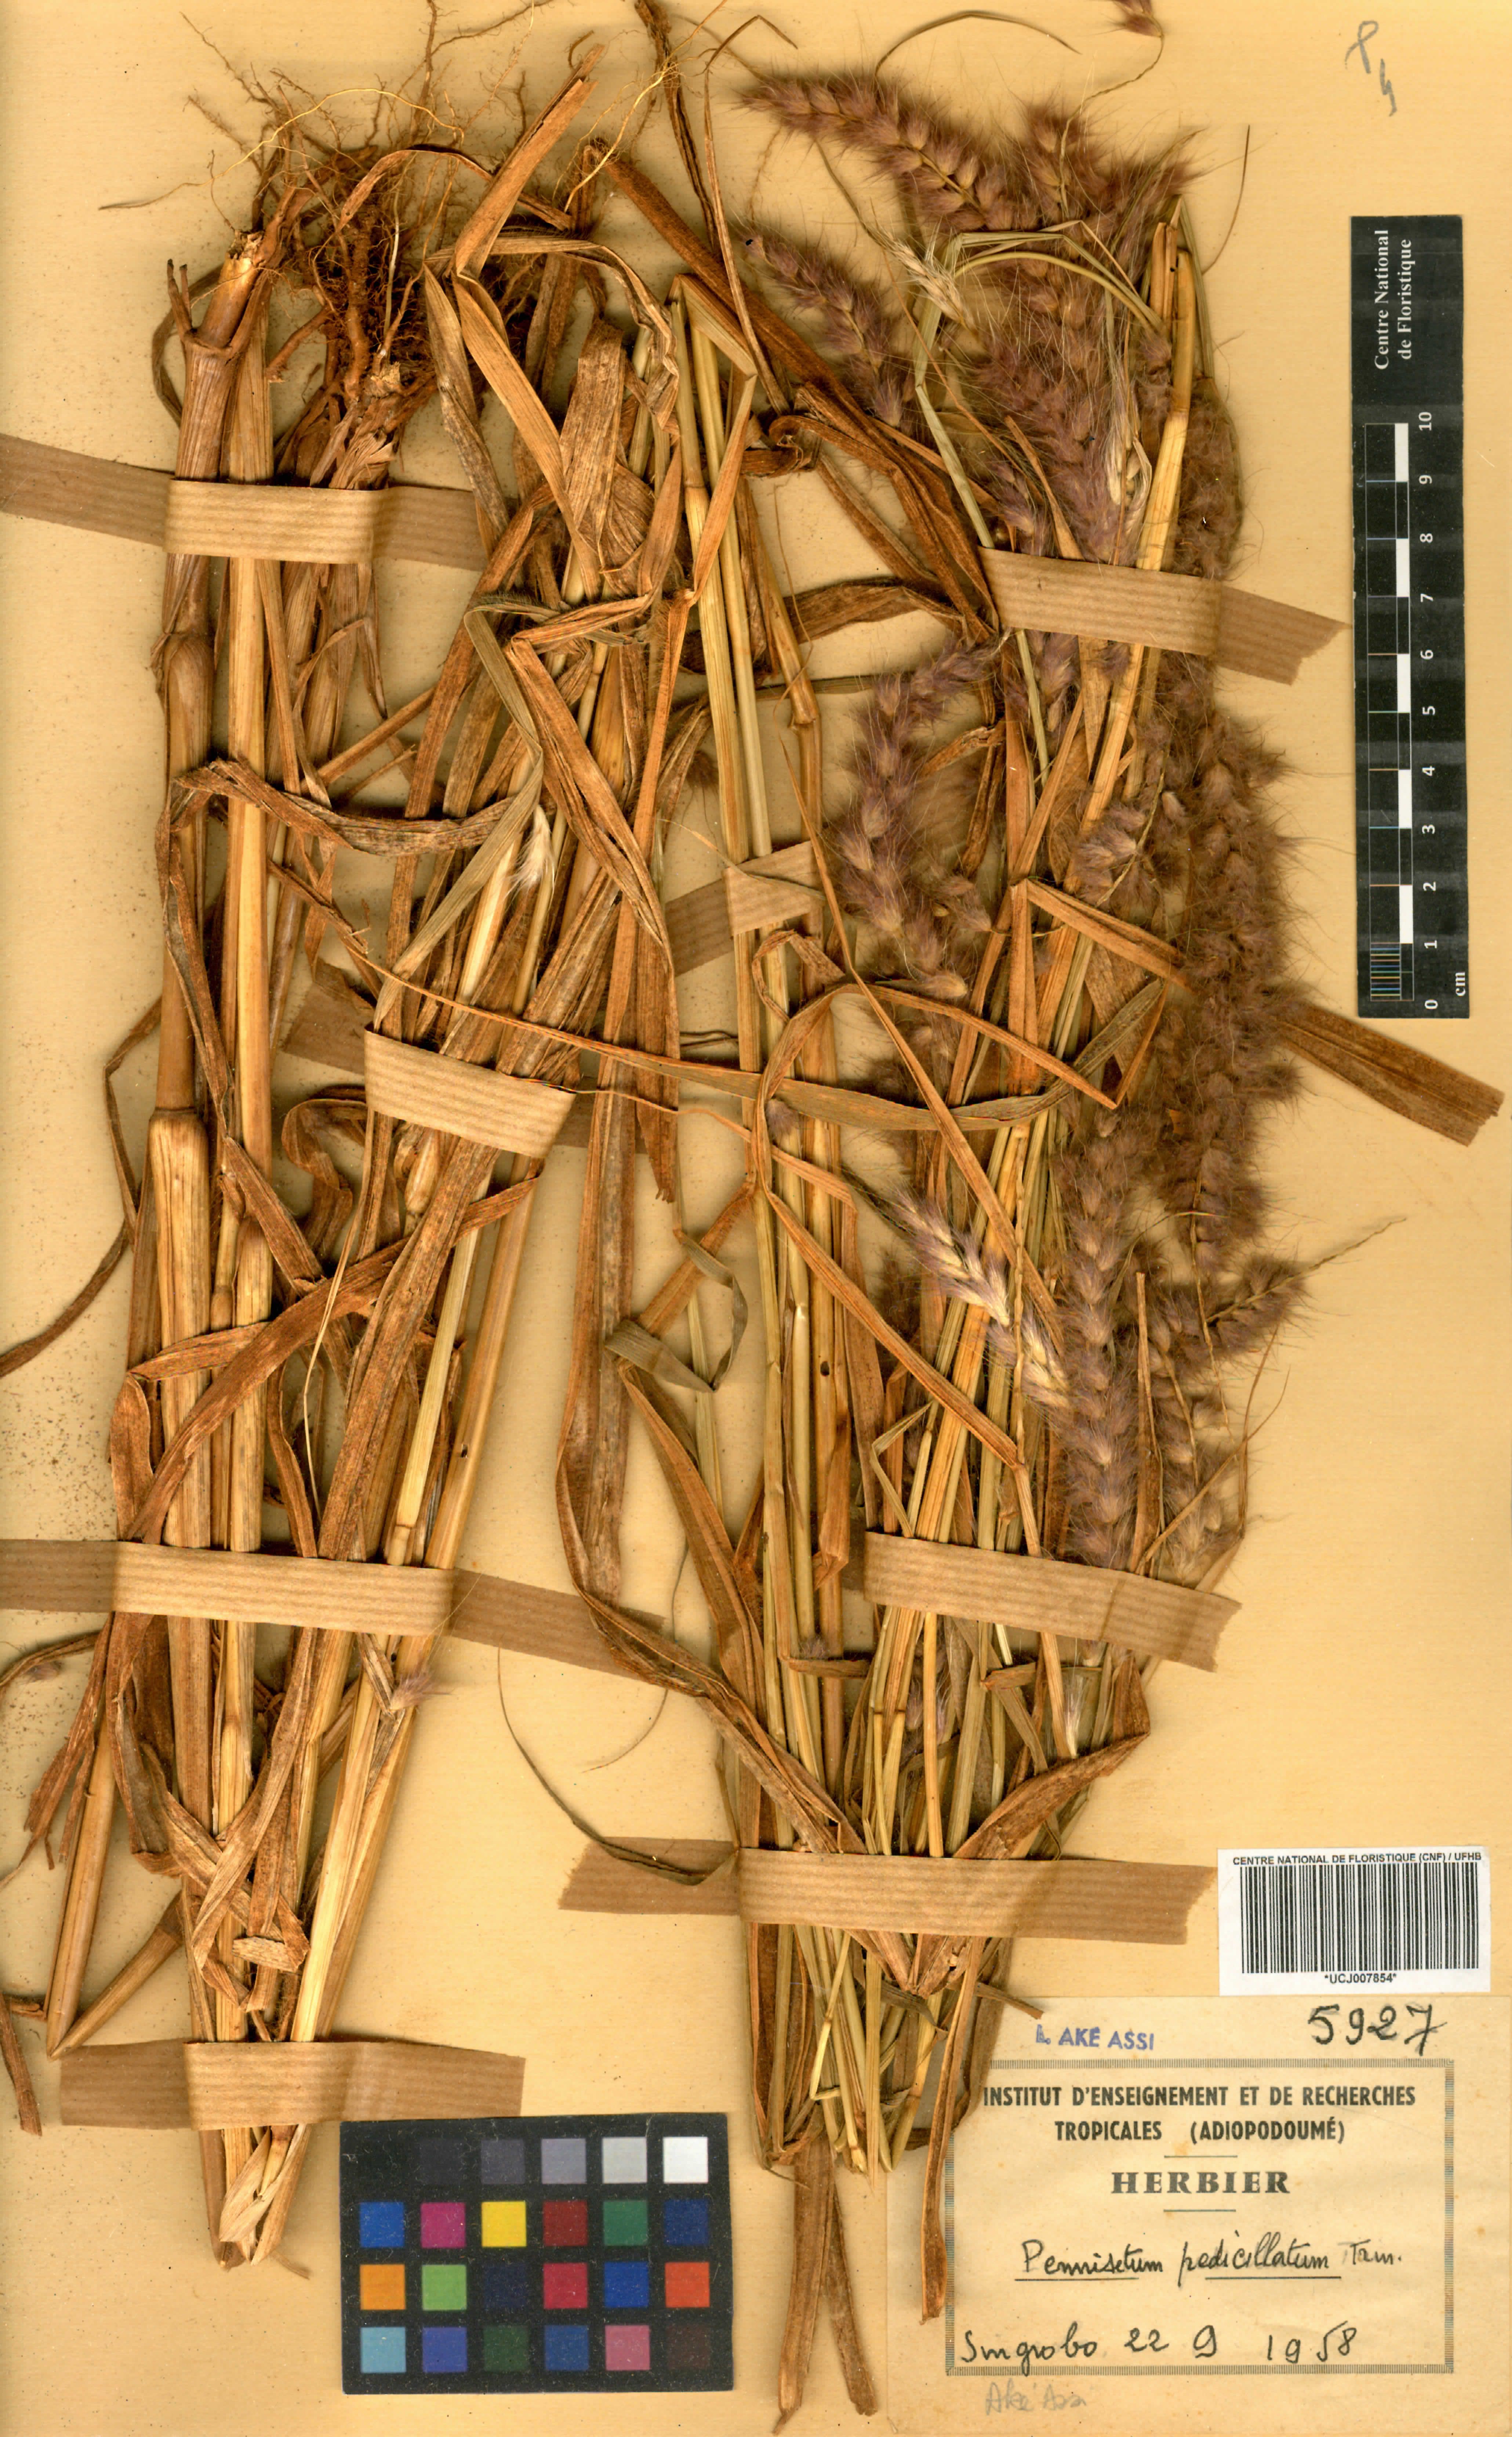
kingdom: Plantae
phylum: Tracheophyta
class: Liliopsida
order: Poales
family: Poaceae
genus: Cenchrus
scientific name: Cenchrus pedicellatus
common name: Hairy fountain grass
